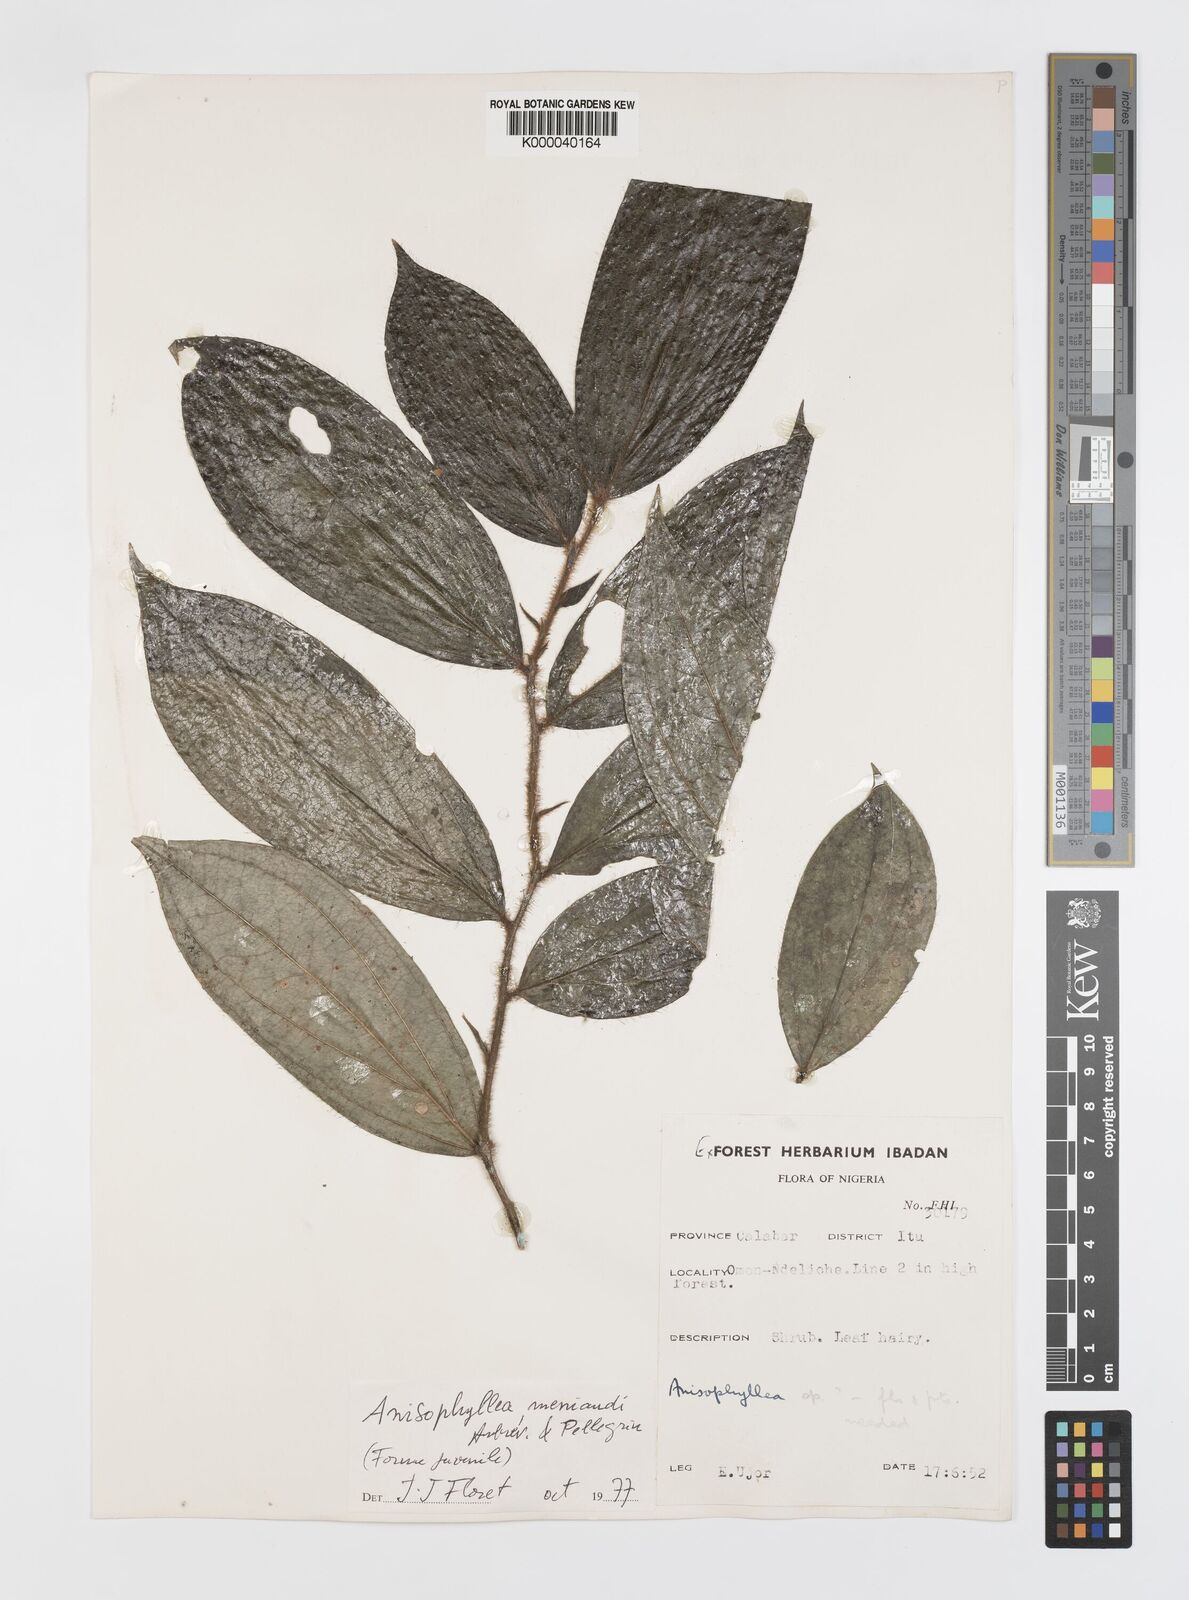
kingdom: Plantae
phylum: Tracheophyta
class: Magnoliopsida
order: Cucurbitales
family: Anisophylleaceae
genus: Anisophyllea
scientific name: Anisophyllea
